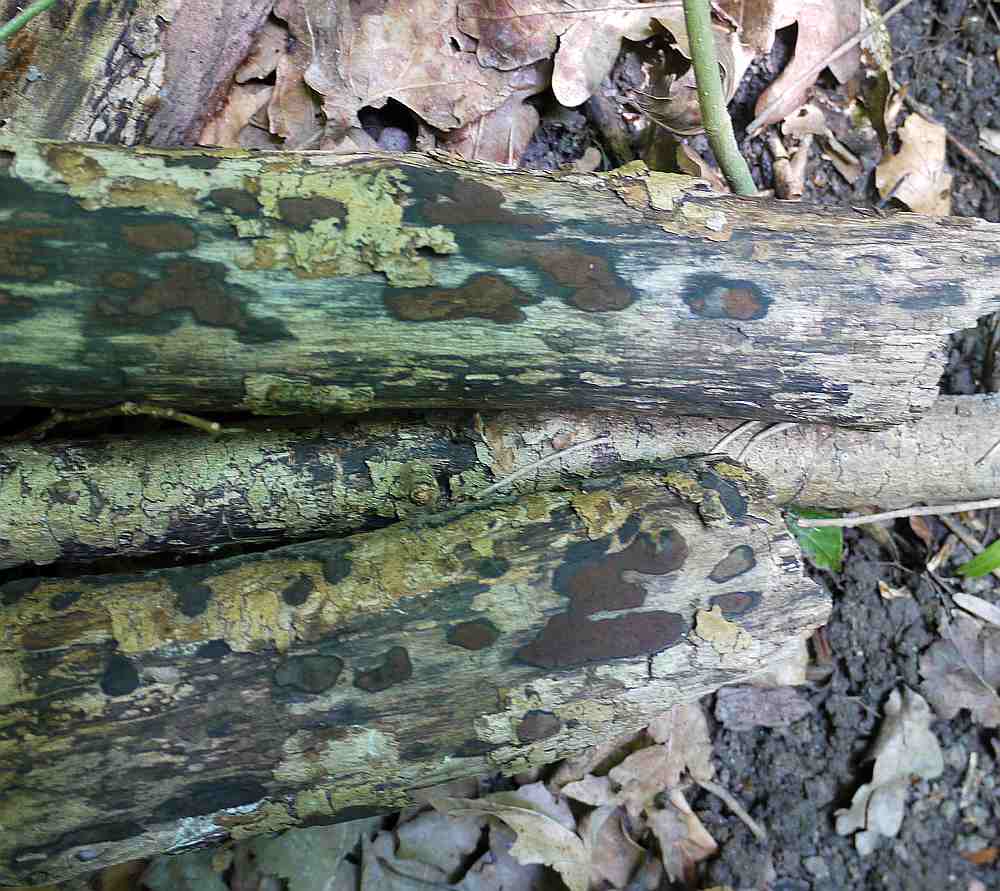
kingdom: Fungi
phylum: Ascomycota
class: Sordariomycetes
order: Xylariales
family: Hypoxylaceae
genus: Hypoxylon
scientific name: Hypoxylon petriniae
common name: nedsænket kulbær
